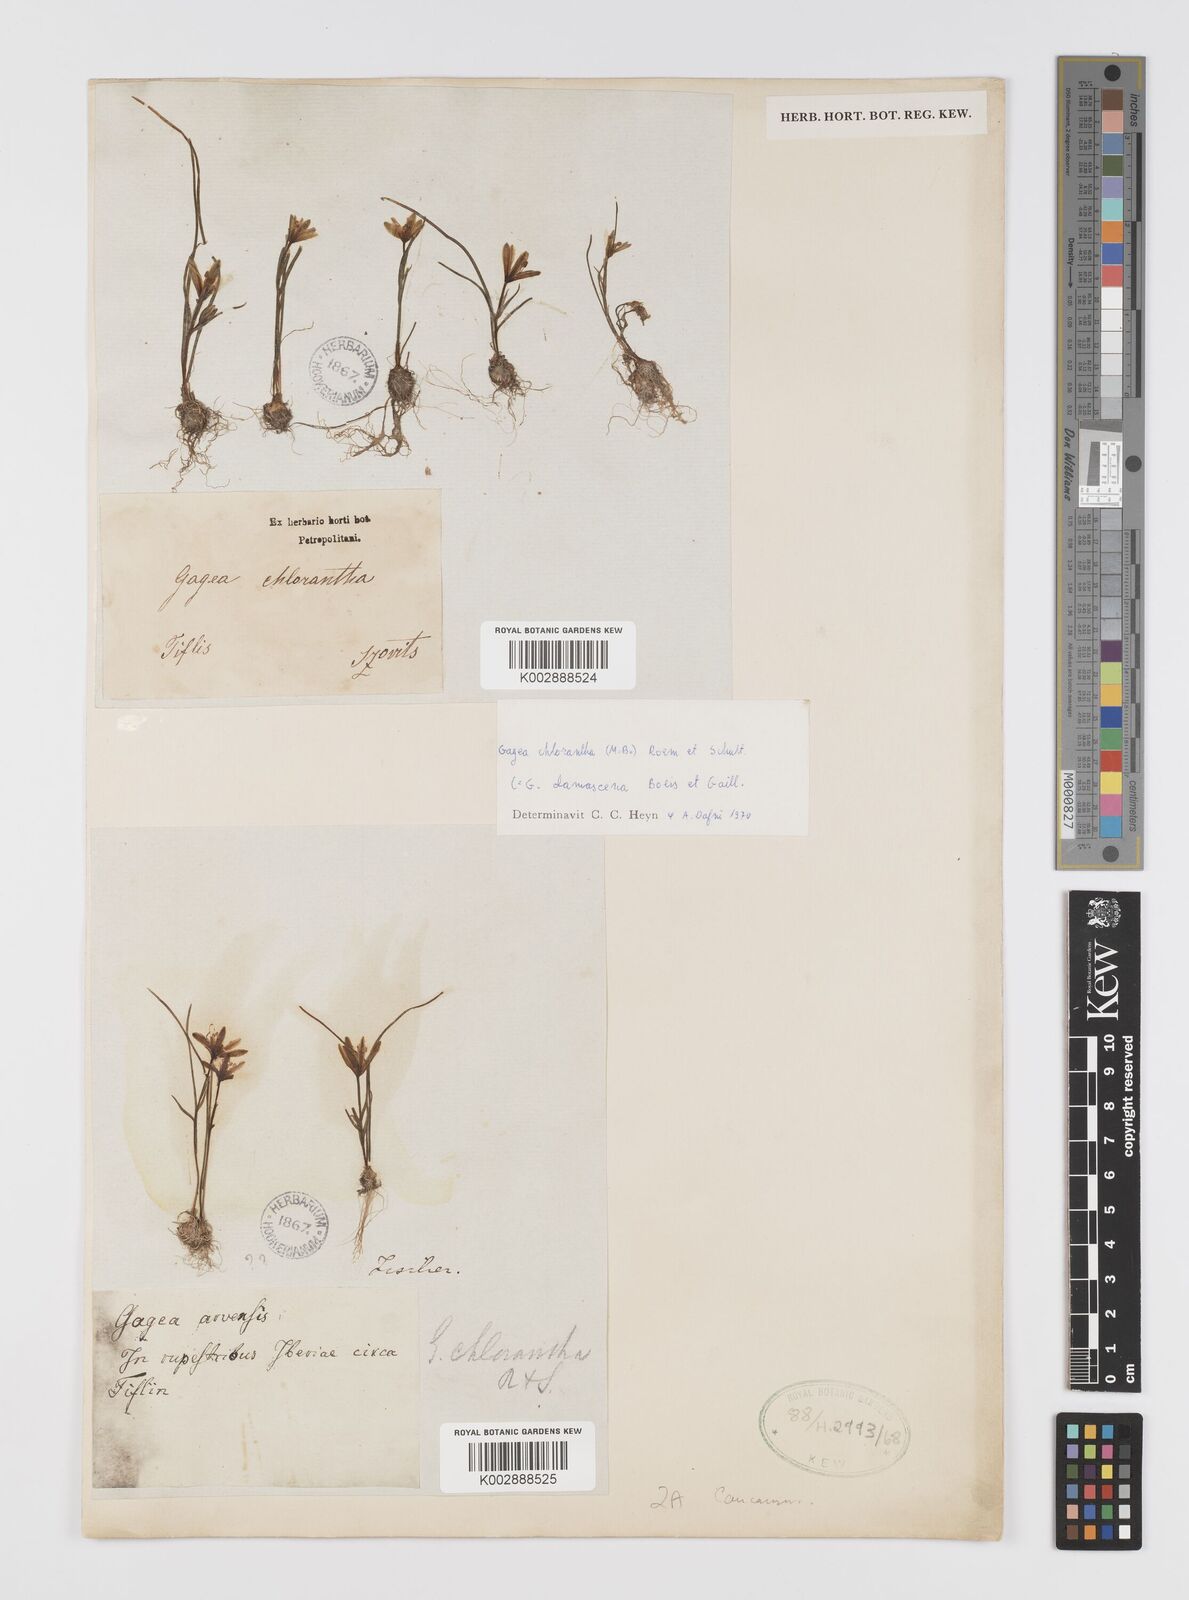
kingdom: Plantae
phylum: Tracheophyta
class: Liliopsida
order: Liliales
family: Liliaceae
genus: Gagea
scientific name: Gagea chlorantha
